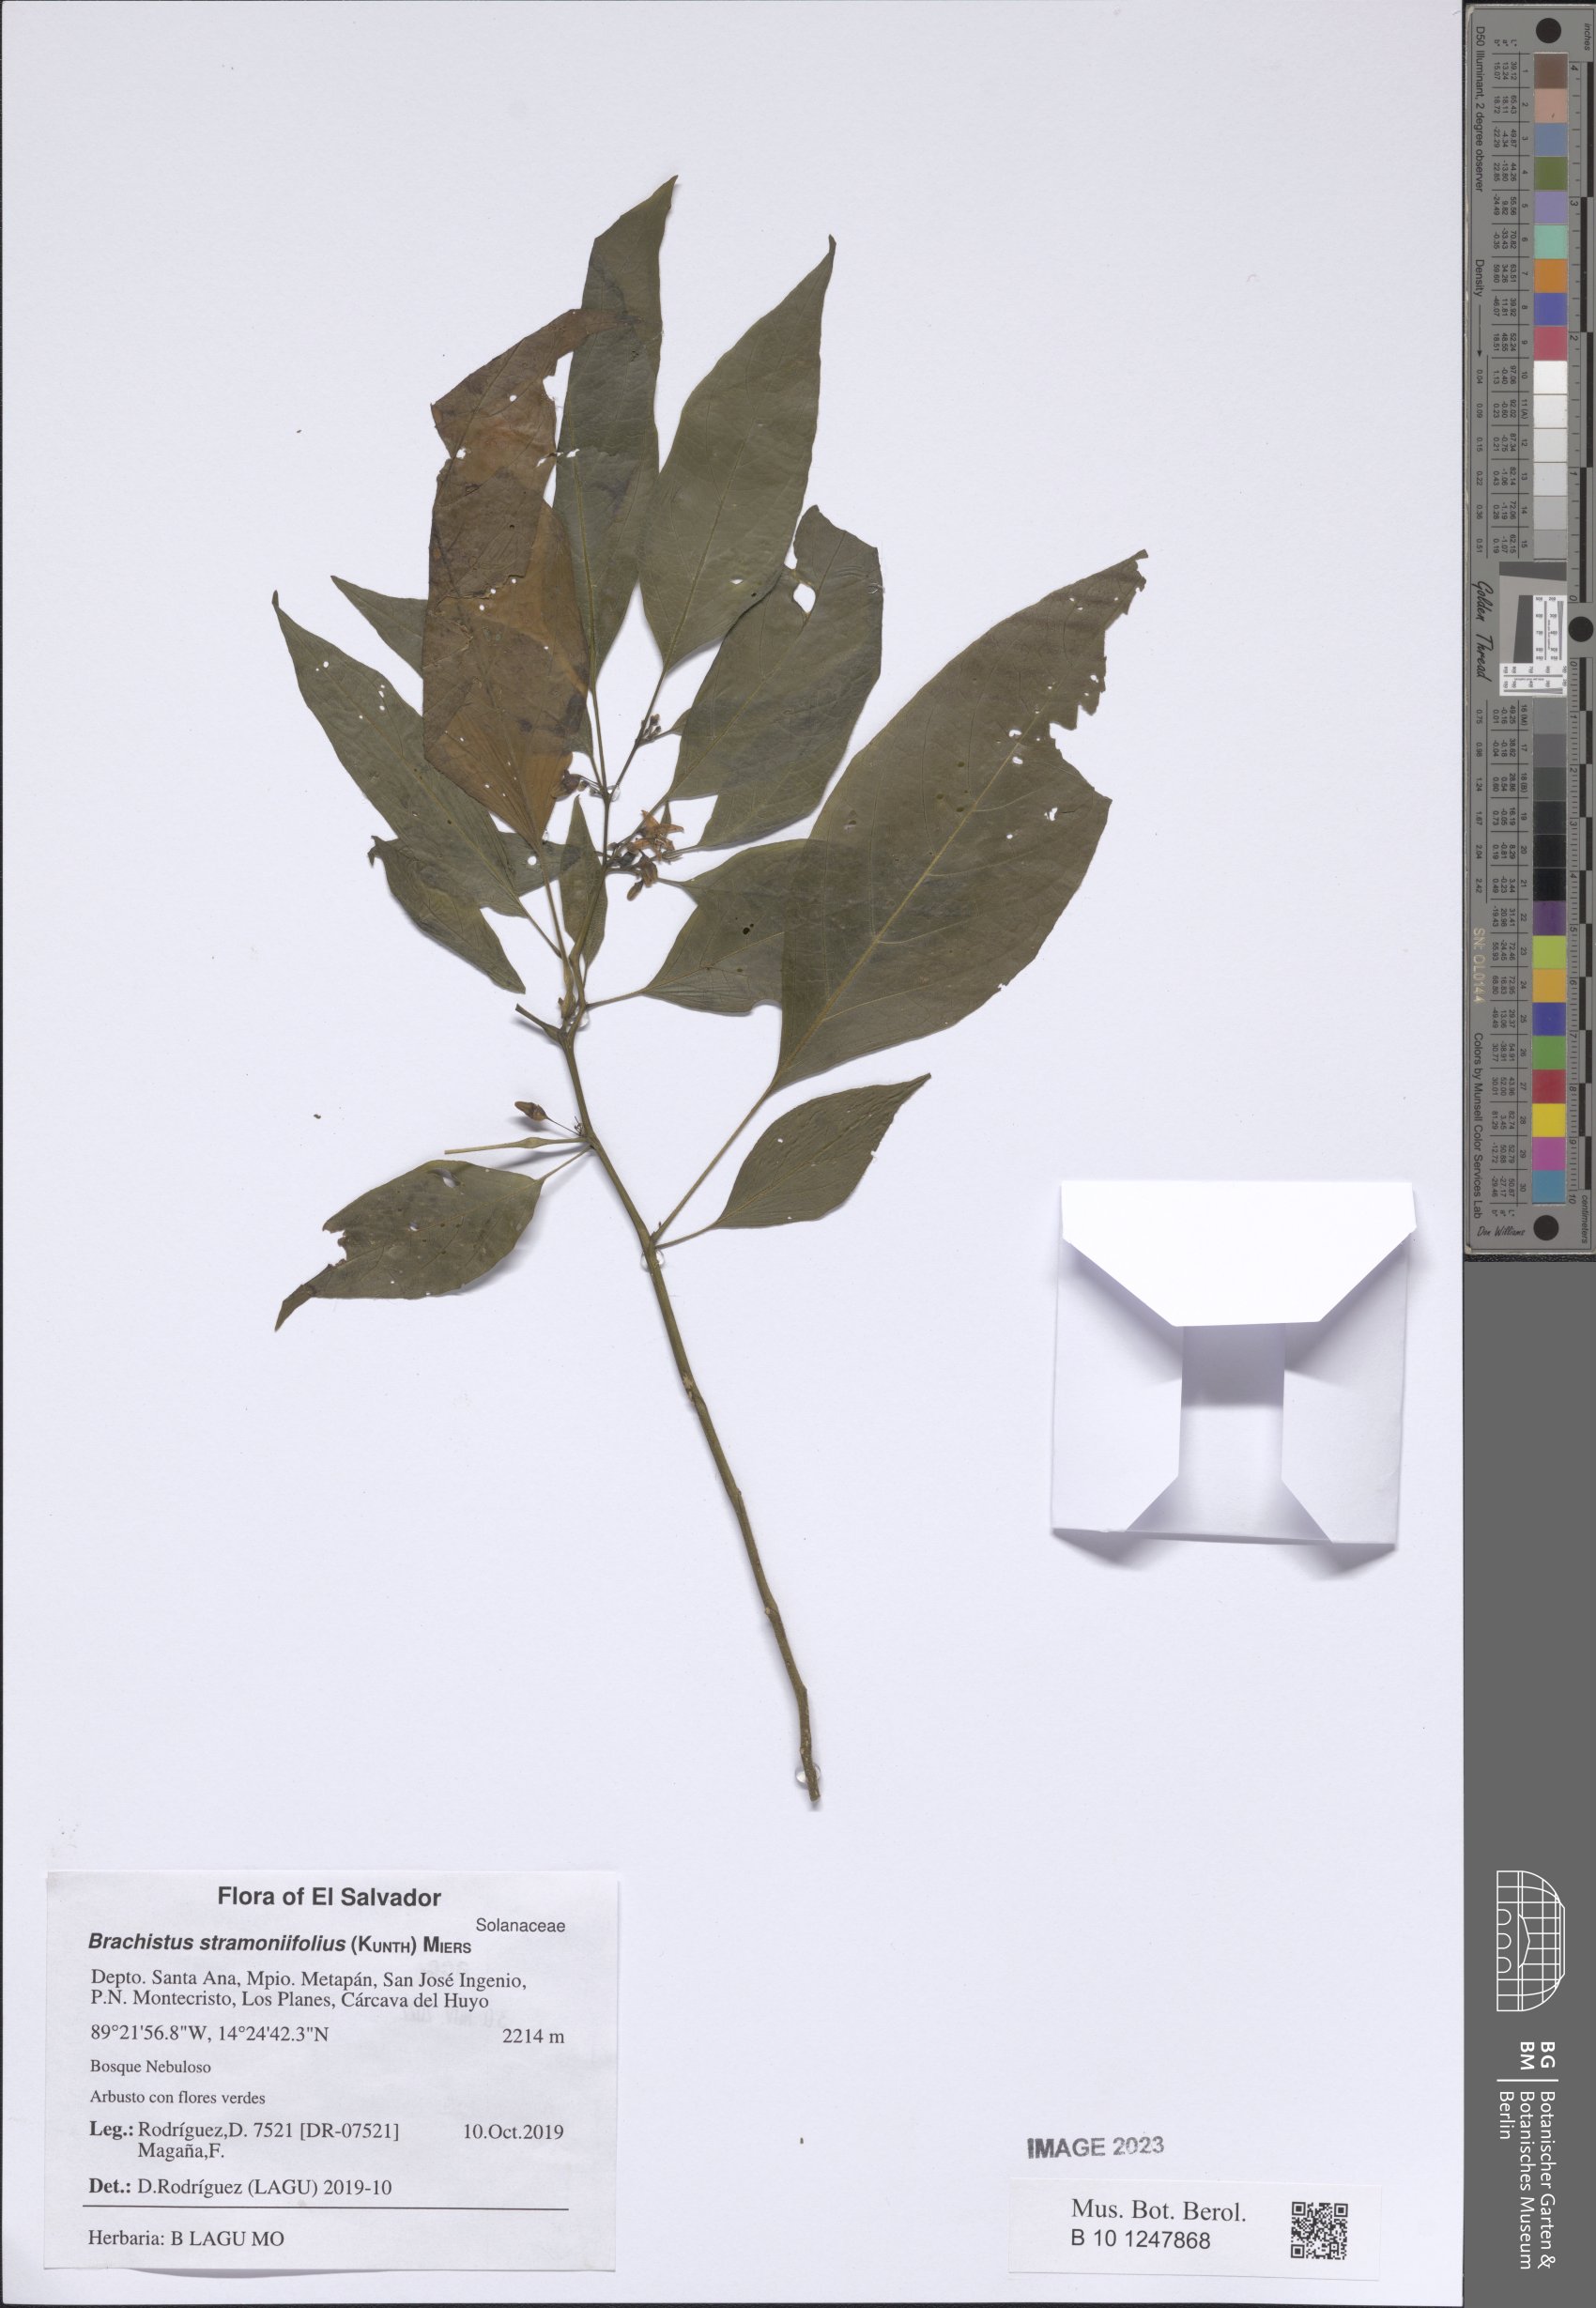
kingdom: Plantae
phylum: Tracheophyta
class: Magnoliopsida
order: Solanales
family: Solanaceae
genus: Brachistus
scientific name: Brachistus stramonifolius
